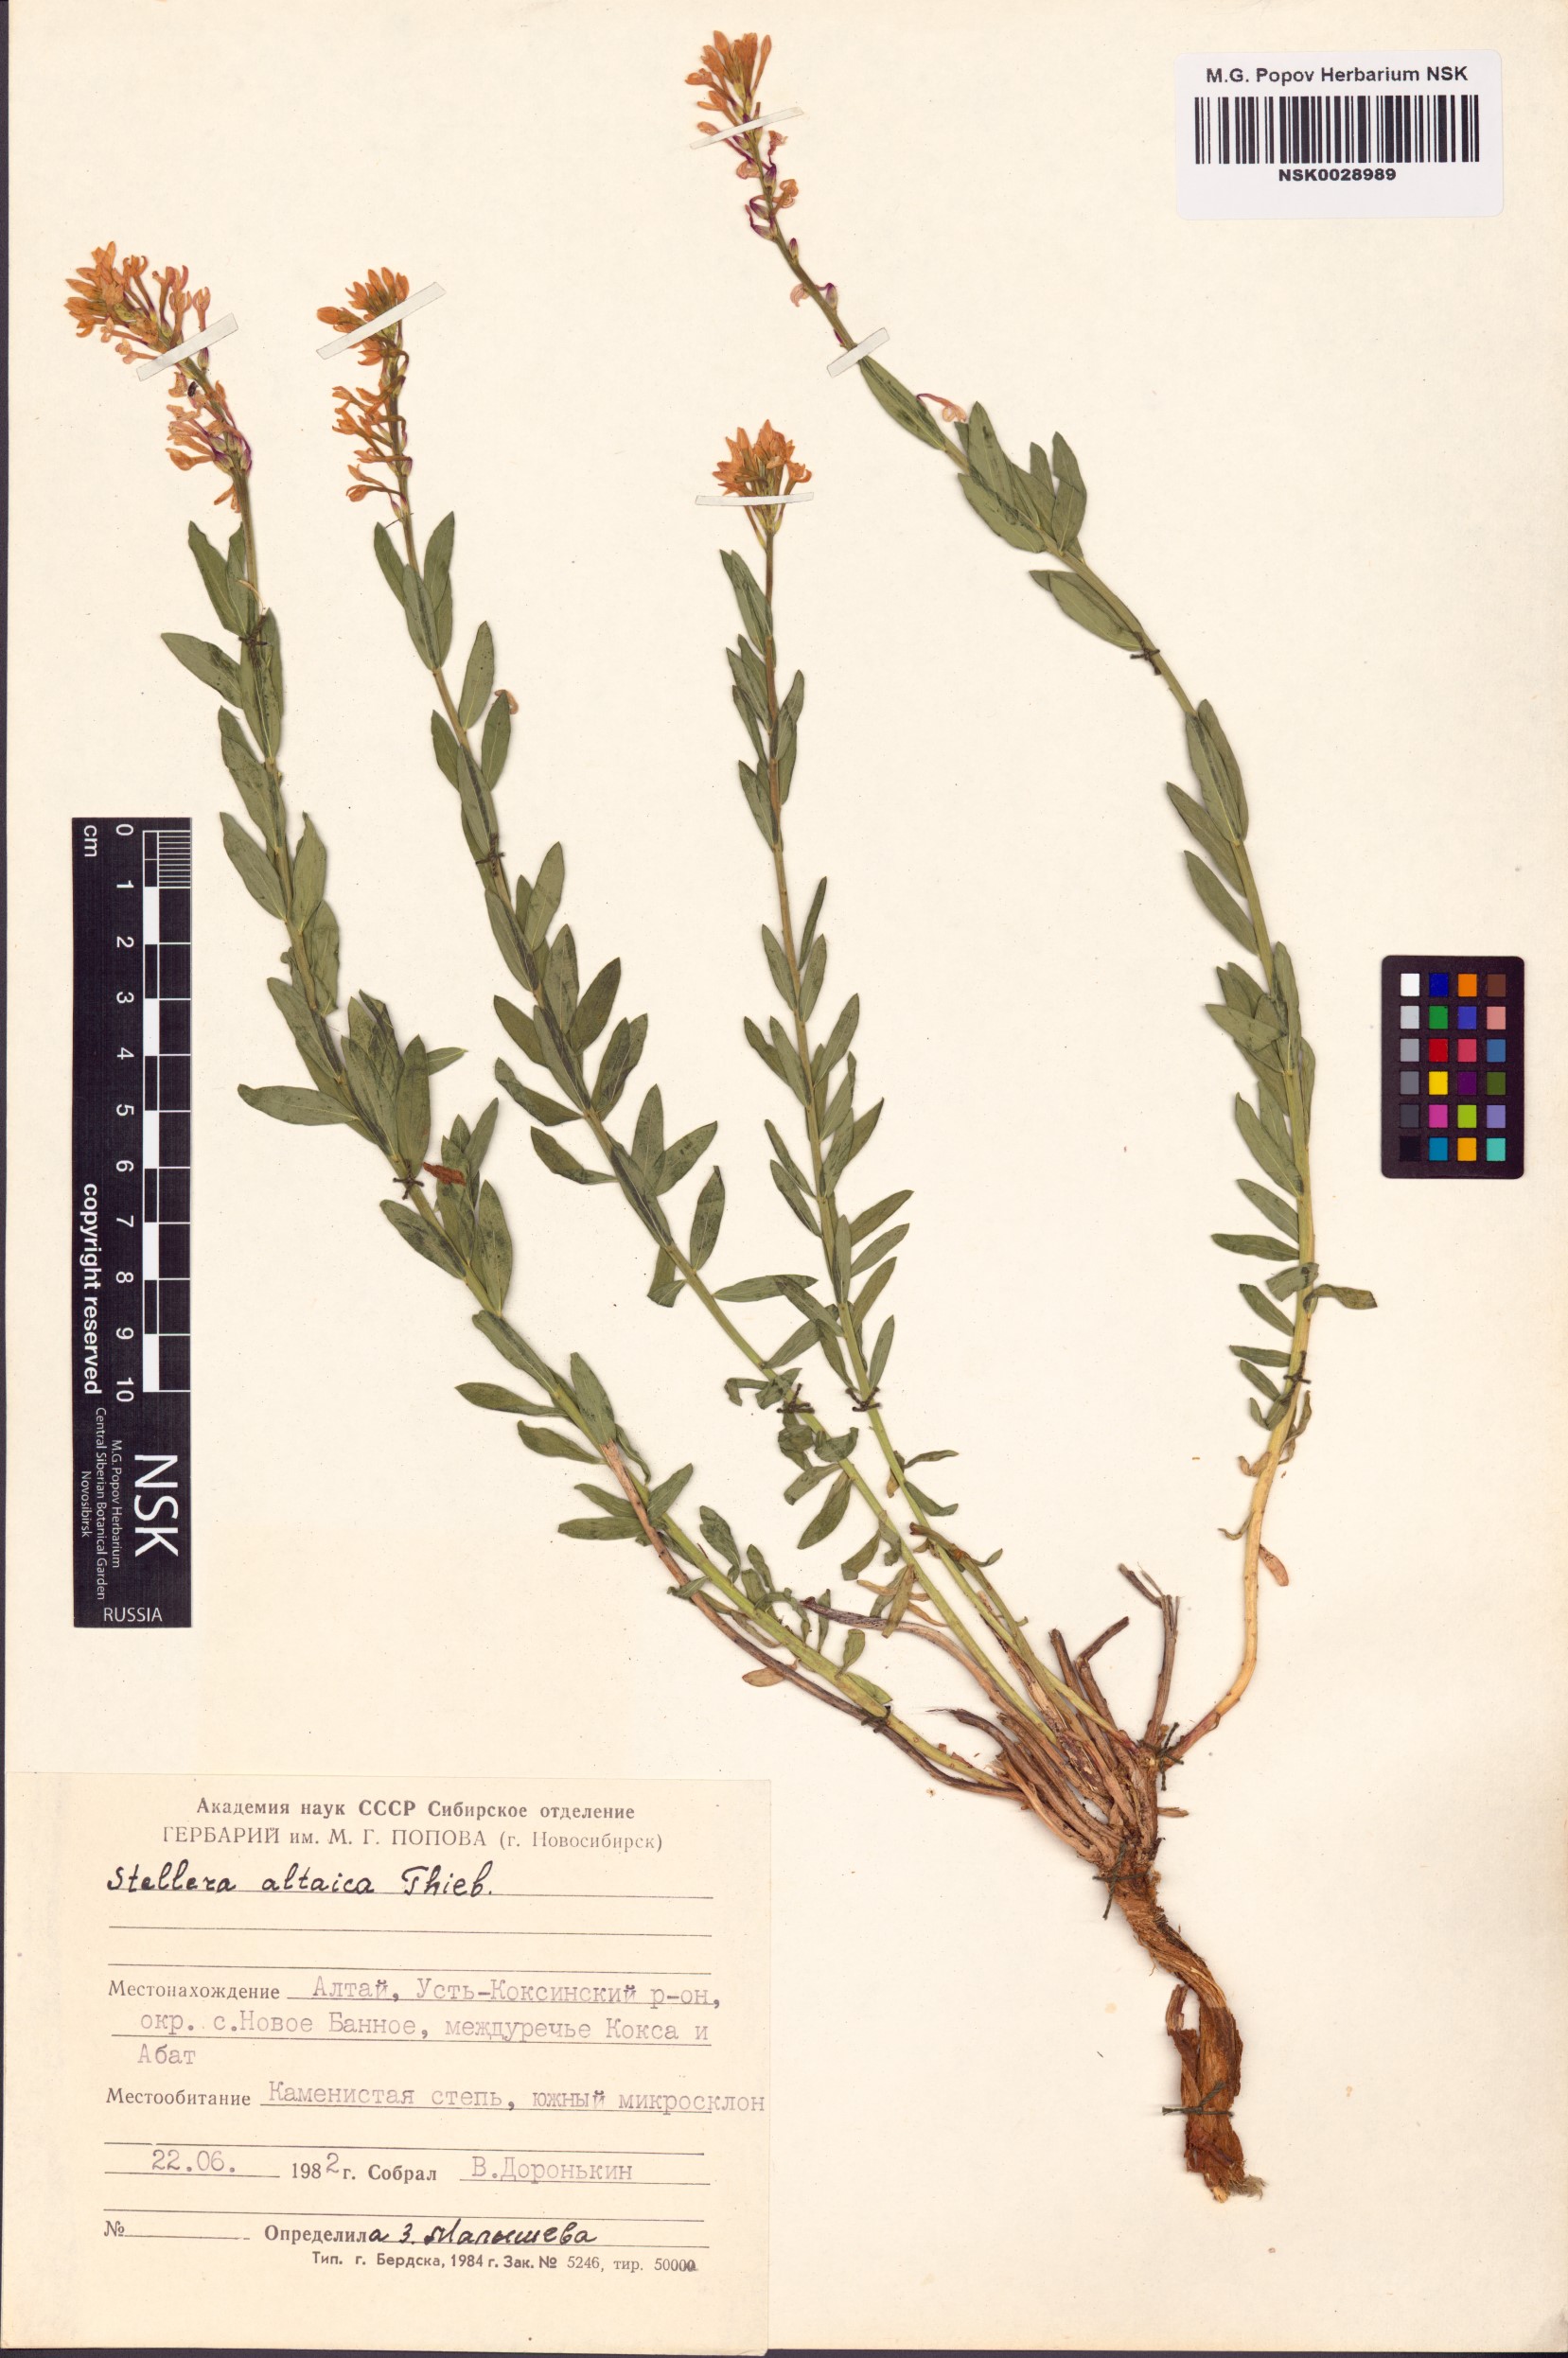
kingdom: Plantae
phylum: Tracheophyta
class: Magnoliopsida
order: Malvales
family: Thymelaeaceae
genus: Diarthron
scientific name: Diarthron altaicum
